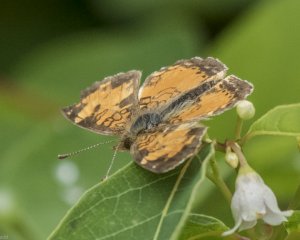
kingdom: Animalia
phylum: Arthropoda
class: Insecta
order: Lepidoptera
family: Nymphalidae
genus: Phyciodes
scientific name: Phyciodes tharos
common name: Northern Crescent
